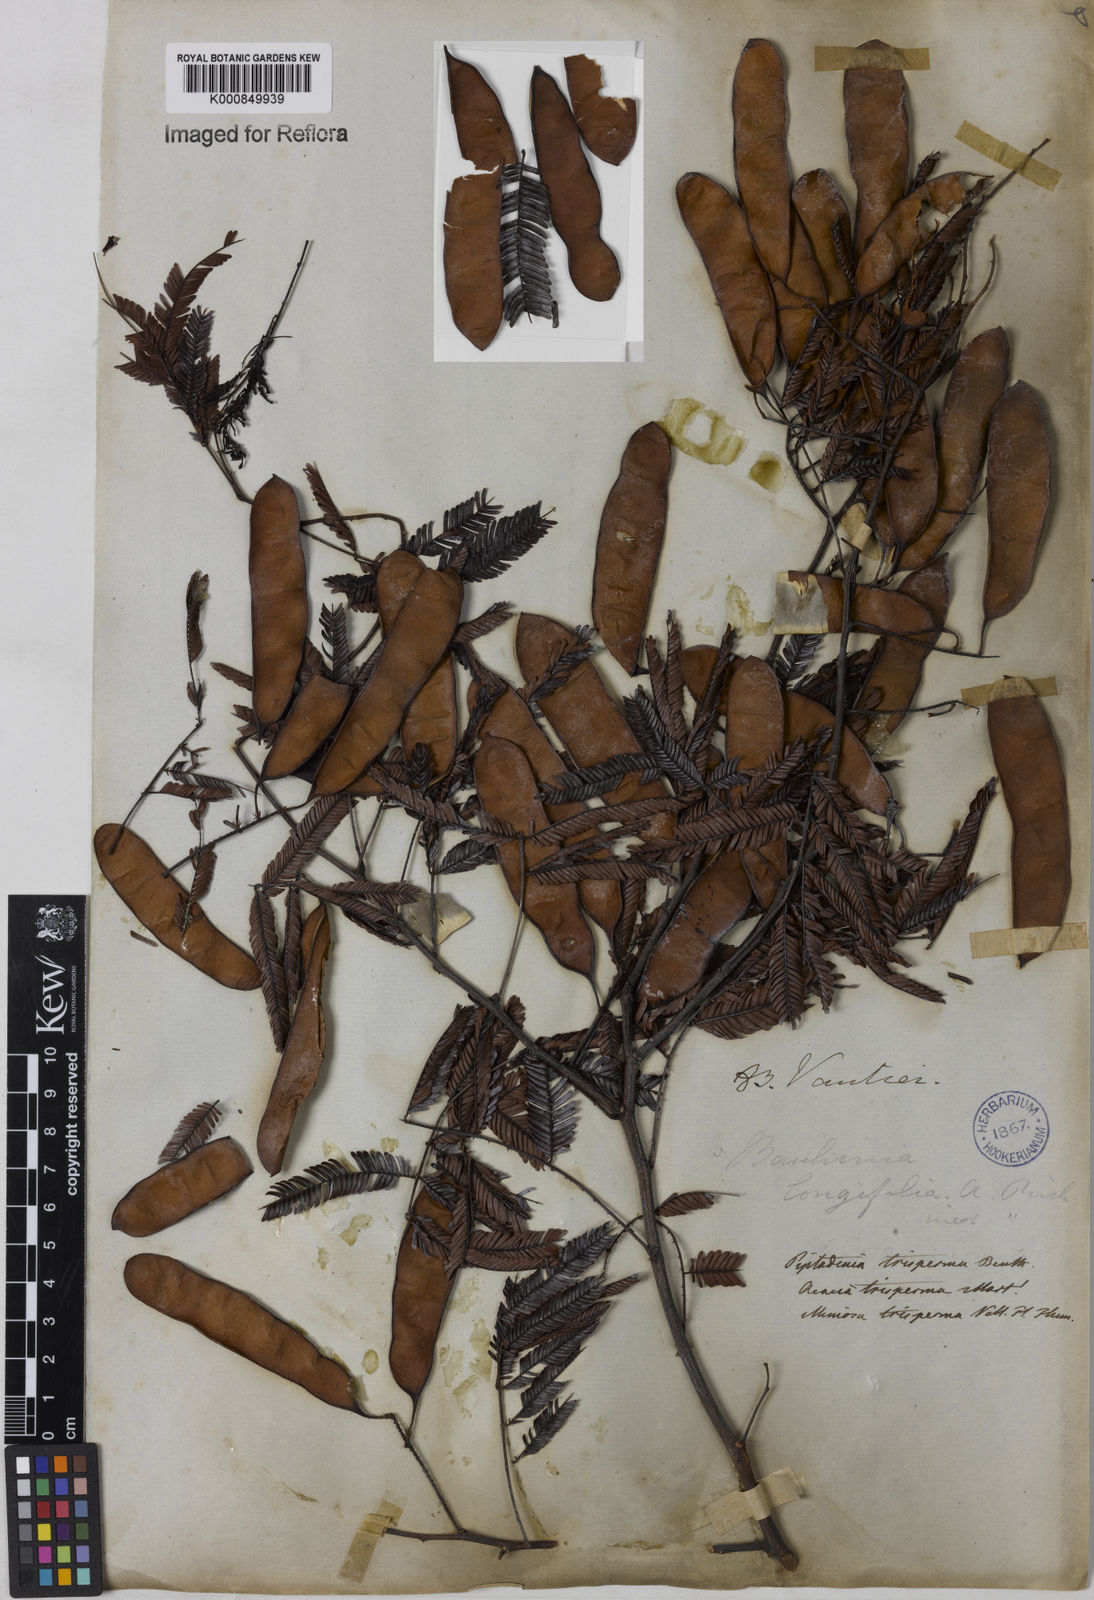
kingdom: Plantae
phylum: Tracheophyta
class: Magnoliopsida
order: Fabales
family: Fabaceae
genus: Piptadenia
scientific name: Piptadenia trisperma
